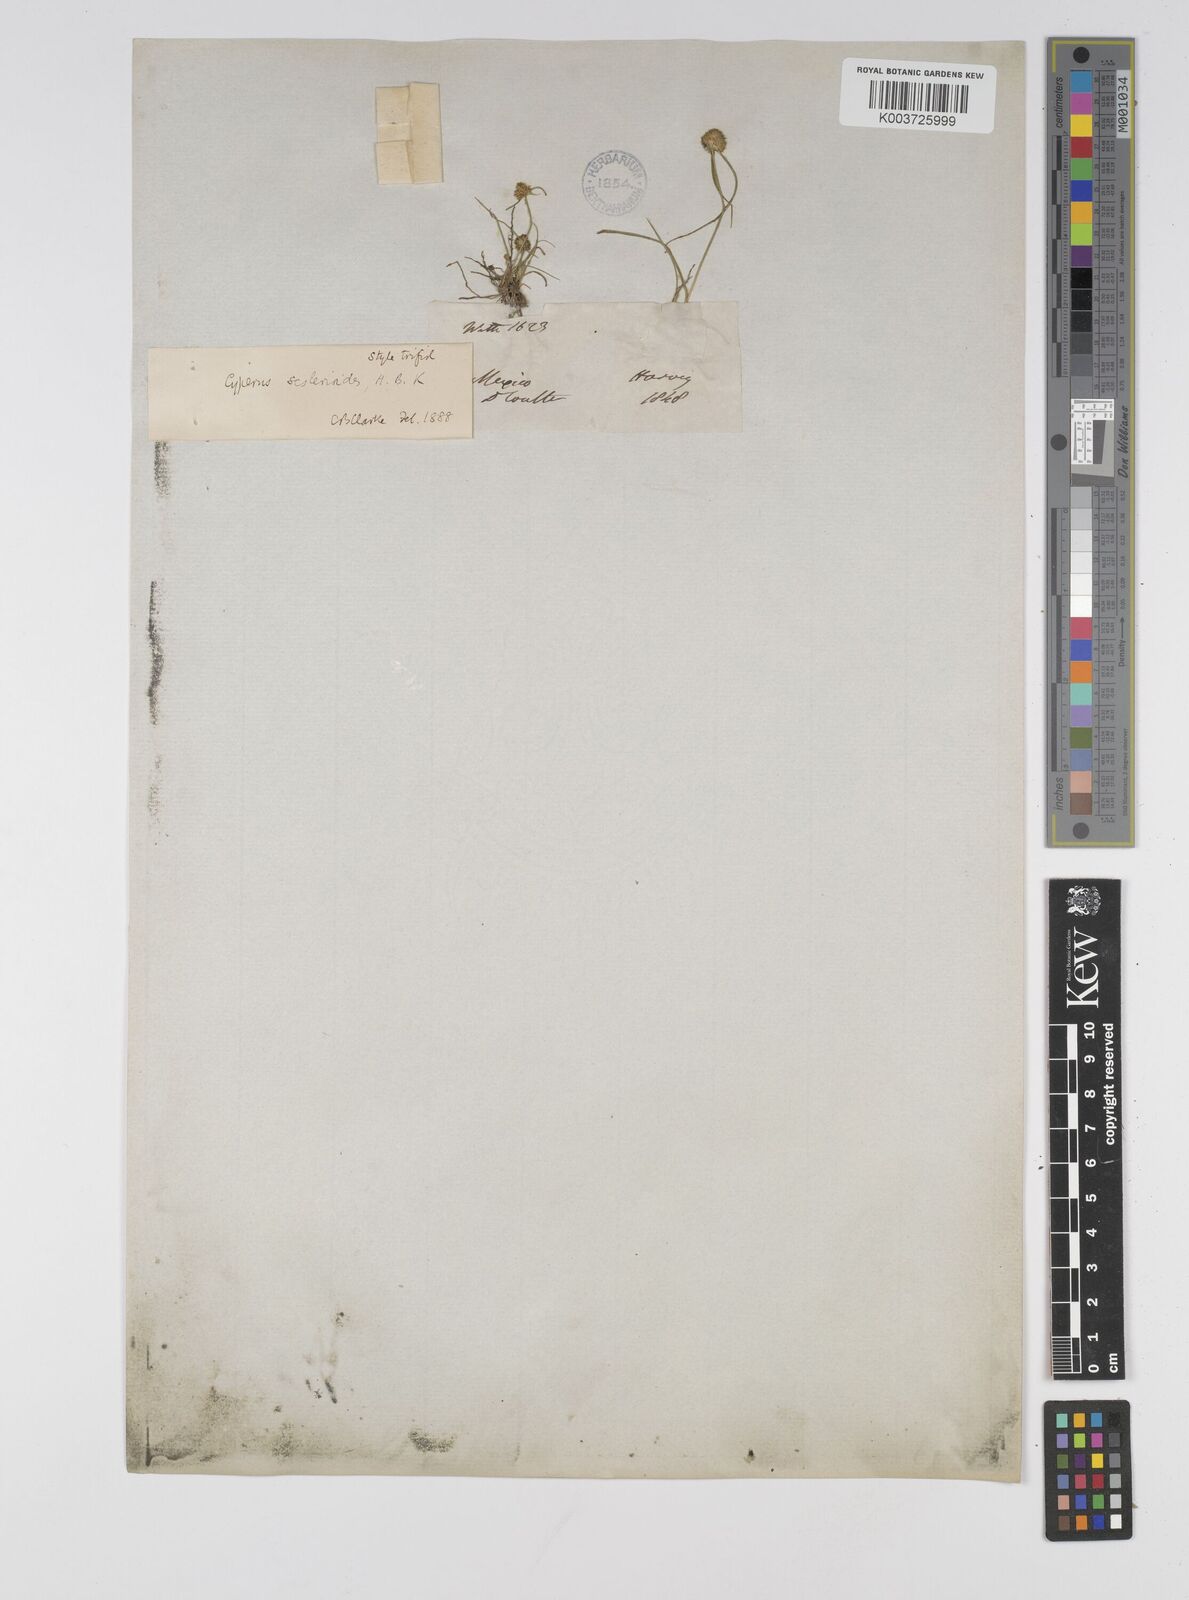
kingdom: Plantae
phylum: Tracheophyta
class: Liliopsida
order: Poales
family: Cyperaceae
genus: Cyperus
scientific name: Cyperus seslerioides
